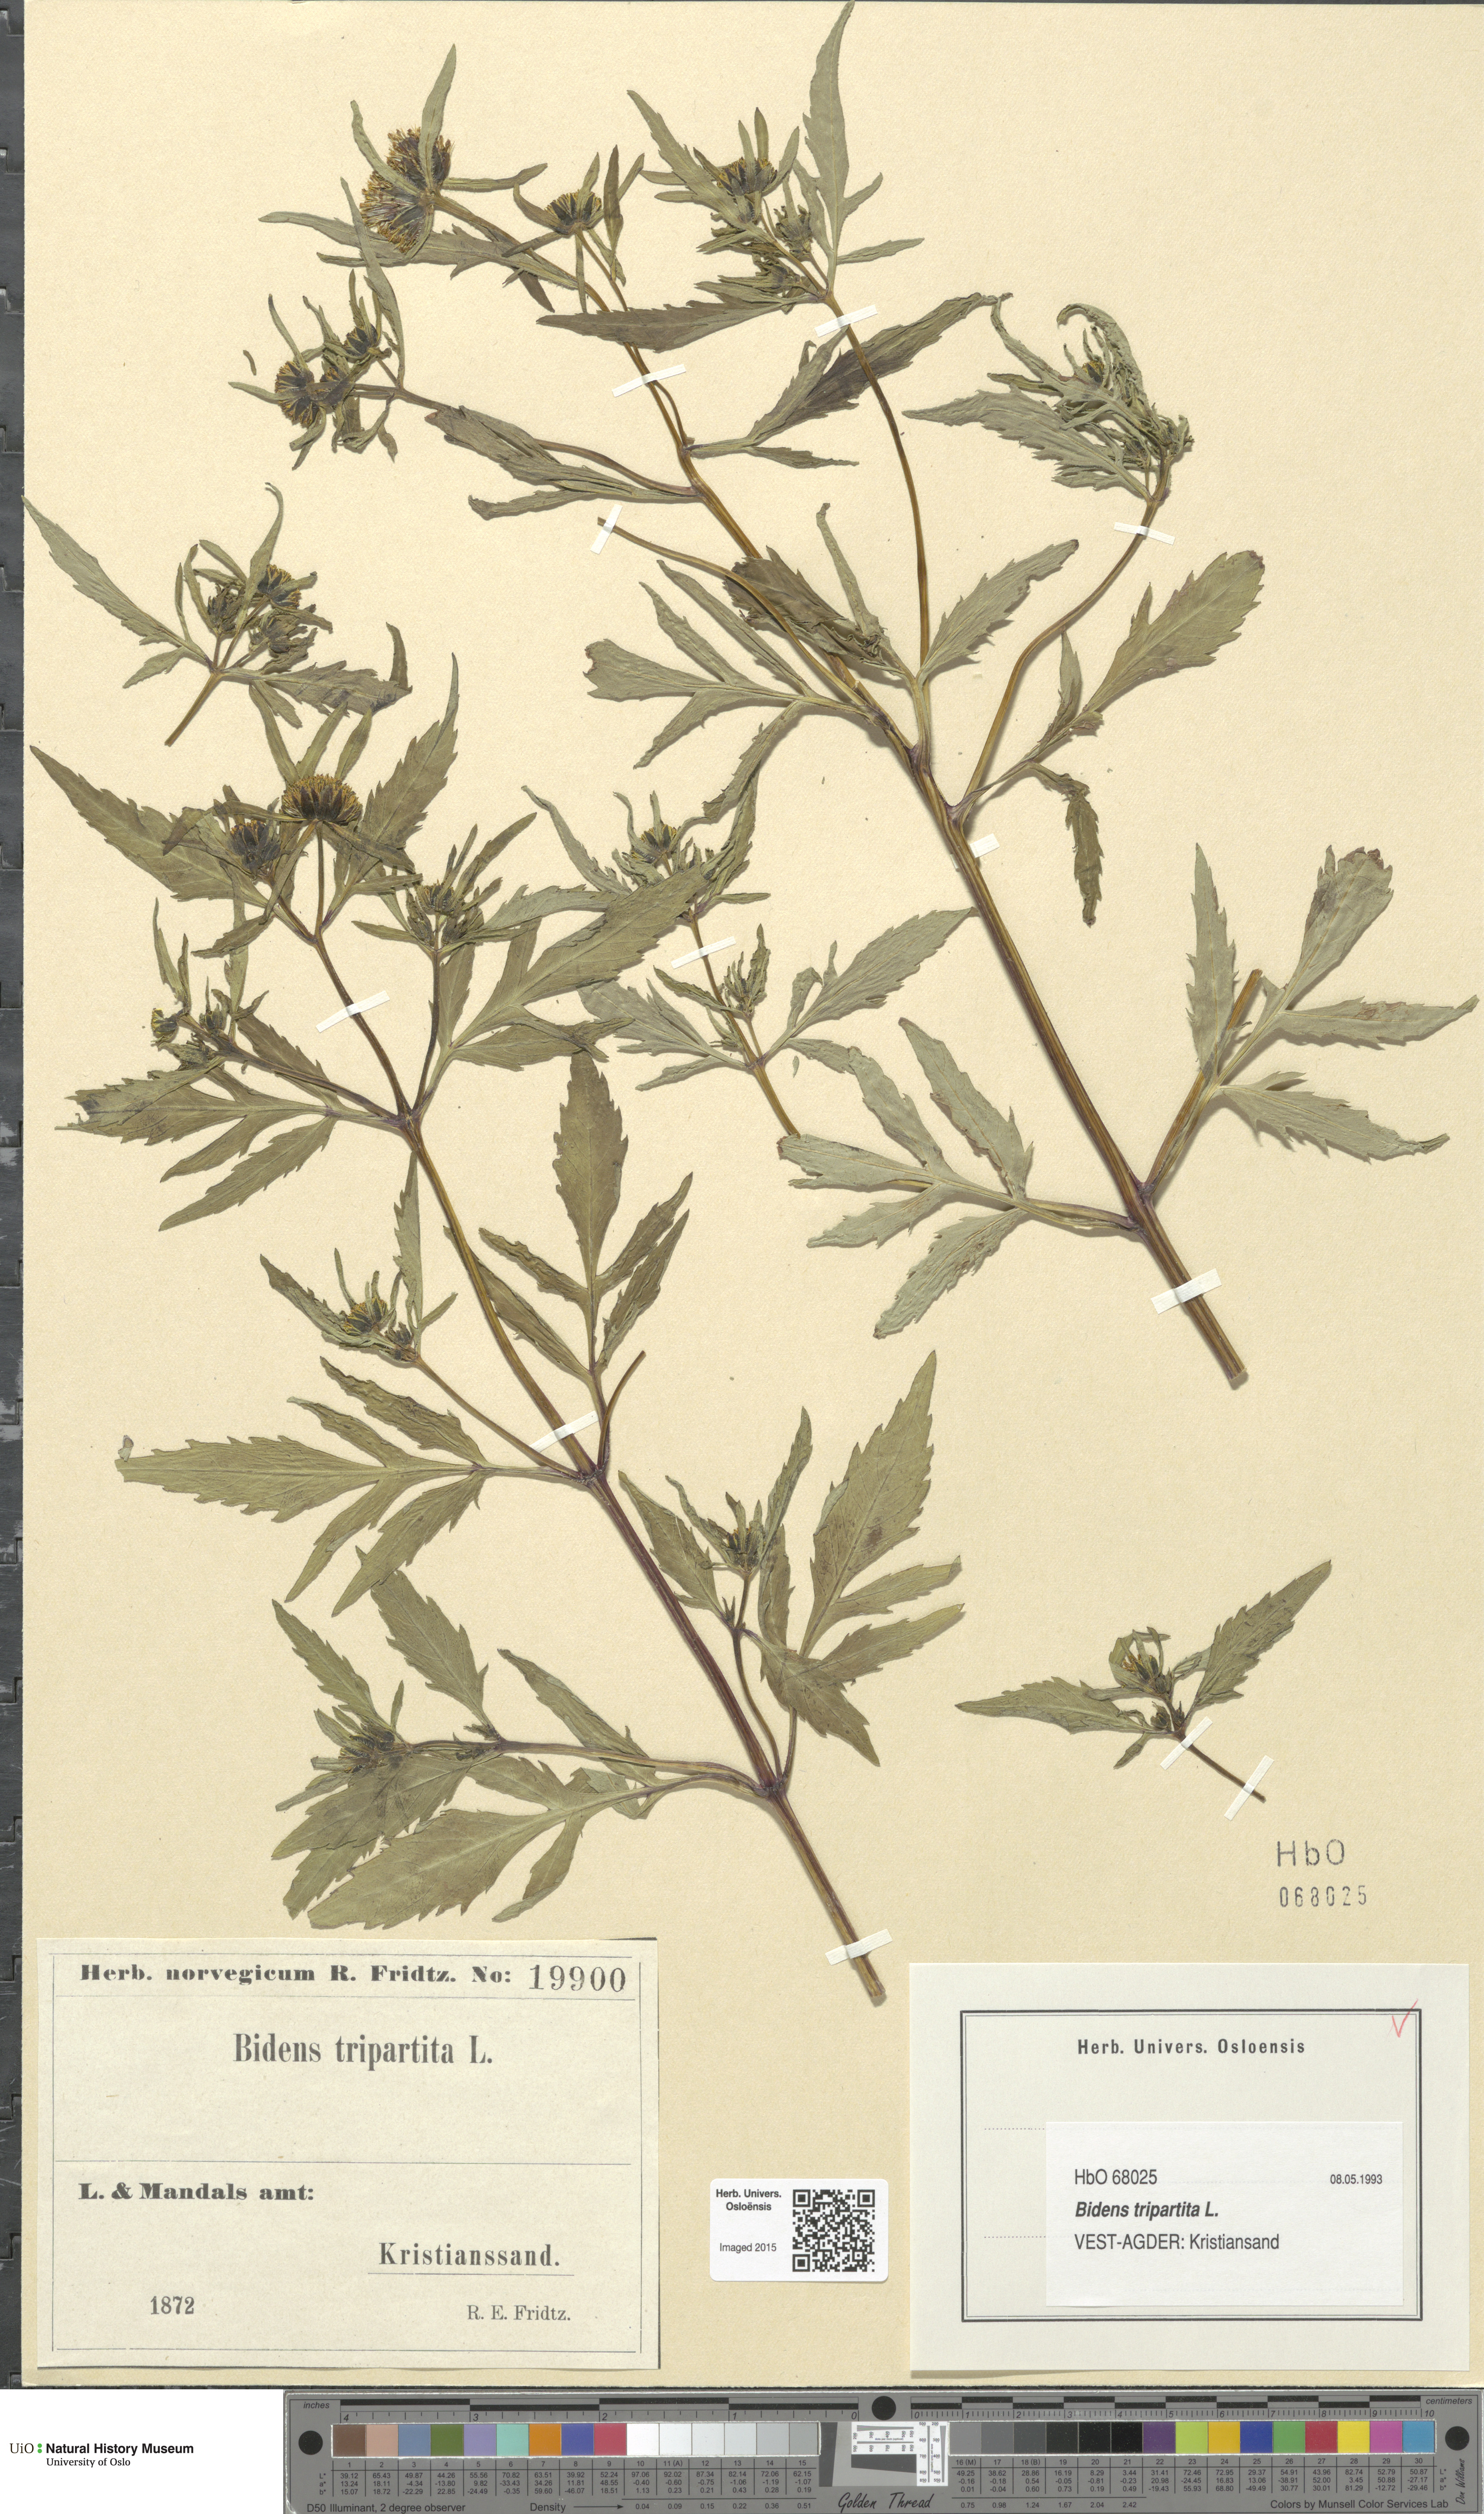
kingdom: Plantae
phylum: Tracheophyta
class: Magnoliopsida
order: Asterales
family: Asteraceae
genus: Bidens
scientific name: Bidens tripartita
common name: Trifid bur-marigold
